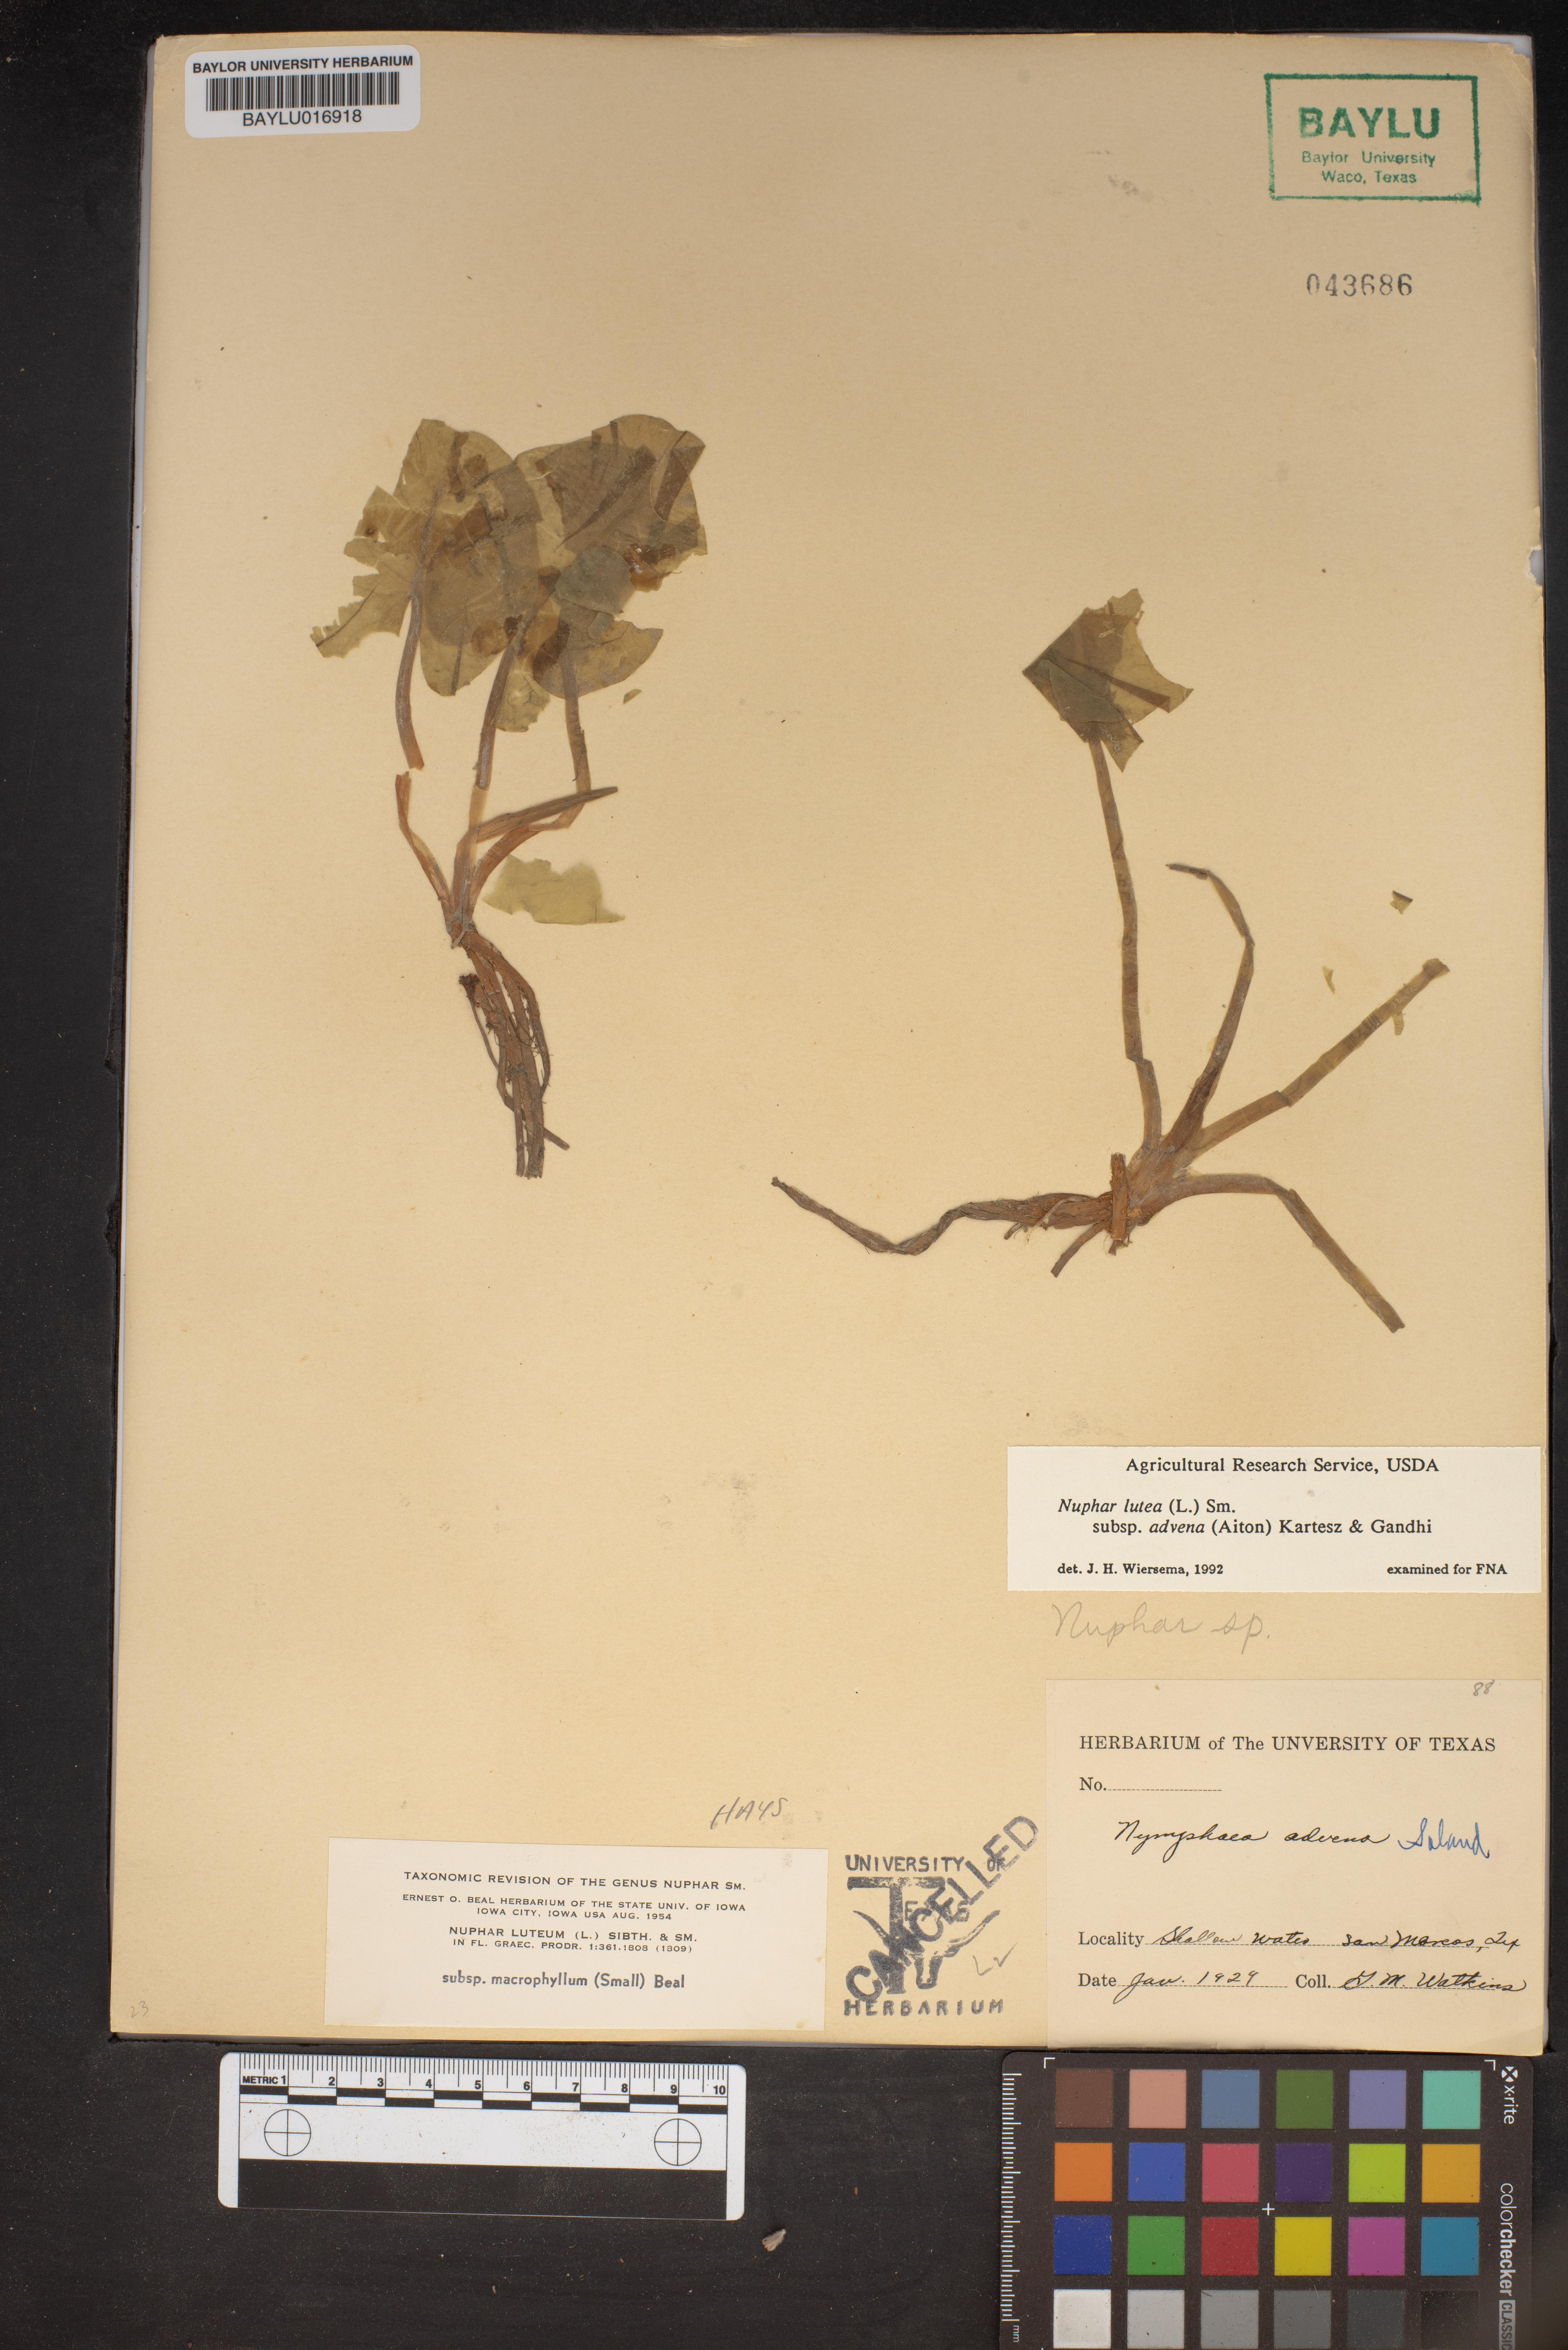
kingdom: Plantae
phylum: Tracheophyta
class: Magnoliopsida
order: Nymphaeales
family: Nymphaeaceae
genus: Nuphar
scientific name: Nuphar advena
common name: Spatter-dock
